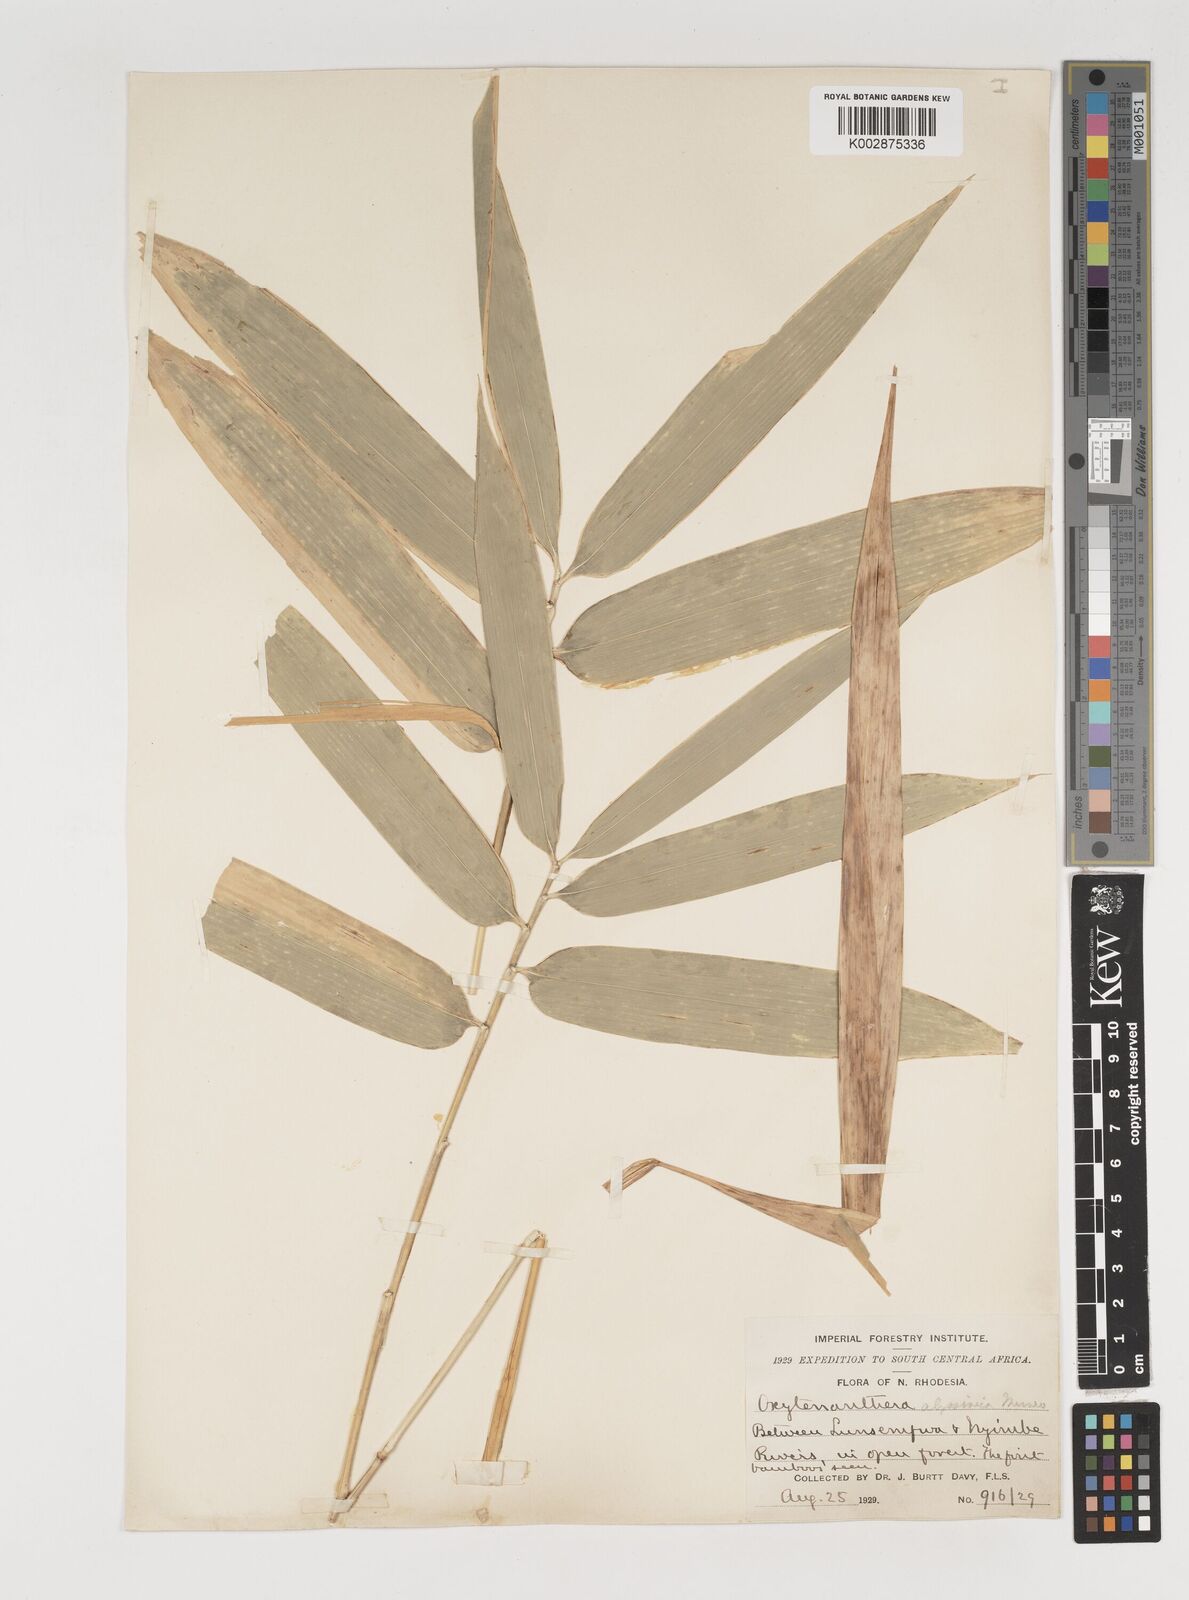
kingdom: Plantae
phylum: Tracheophyta
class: Liliopsida
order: Poales
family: Poaceae
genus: Oxytenanthera
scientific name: Oxytenanthera abyssinica
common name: Wine bamboo
